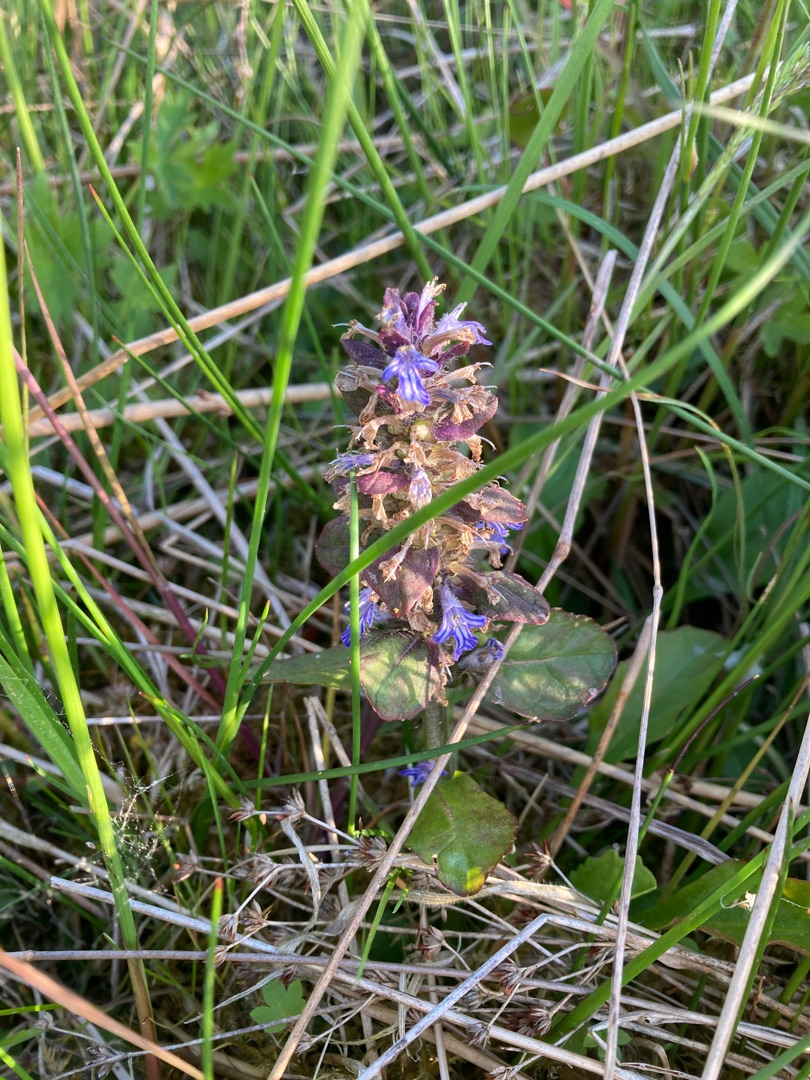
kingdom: Plantae
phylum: Tracheophyta
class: Magnoliopsida
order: Lamiales
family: Lamiaceae
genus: Ajuga
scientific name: Ajuga reptans
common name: Krybende læbeløs
